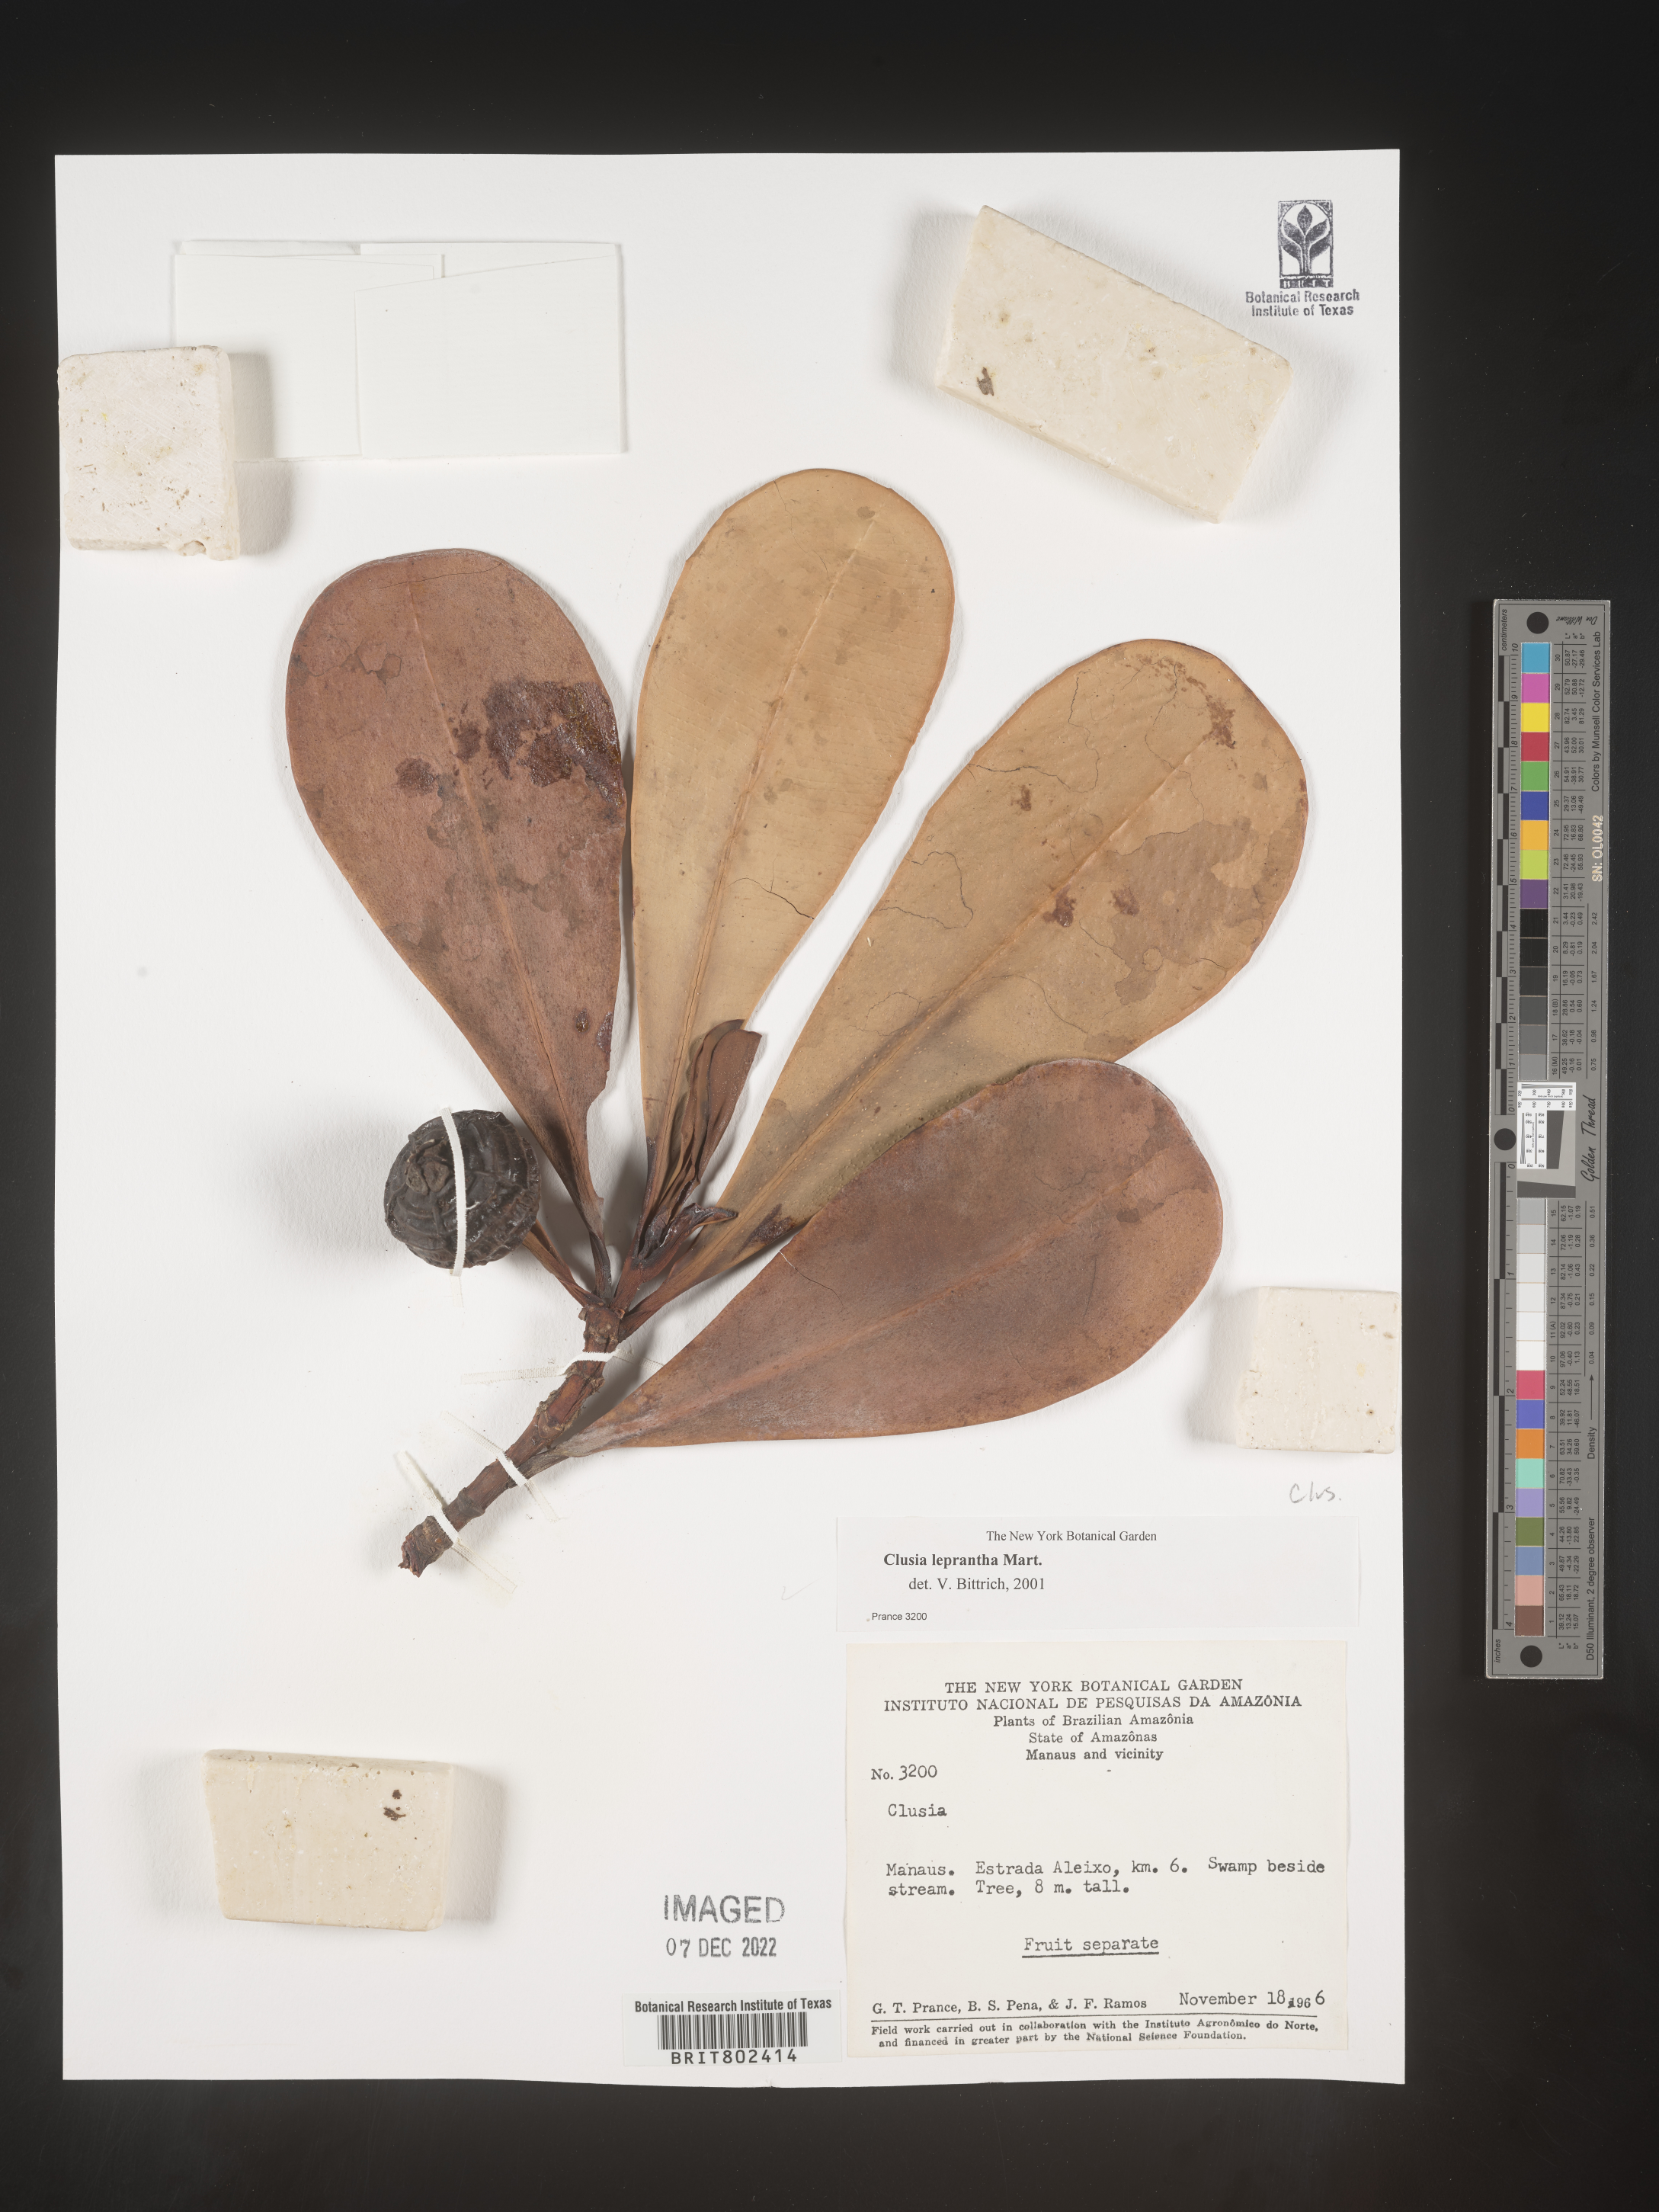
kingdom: Plantae
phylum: Tracheophyta
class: Magnoliopsida
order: Malpighiales
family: Clusiaceae
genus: Clusia
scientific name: Clusia
